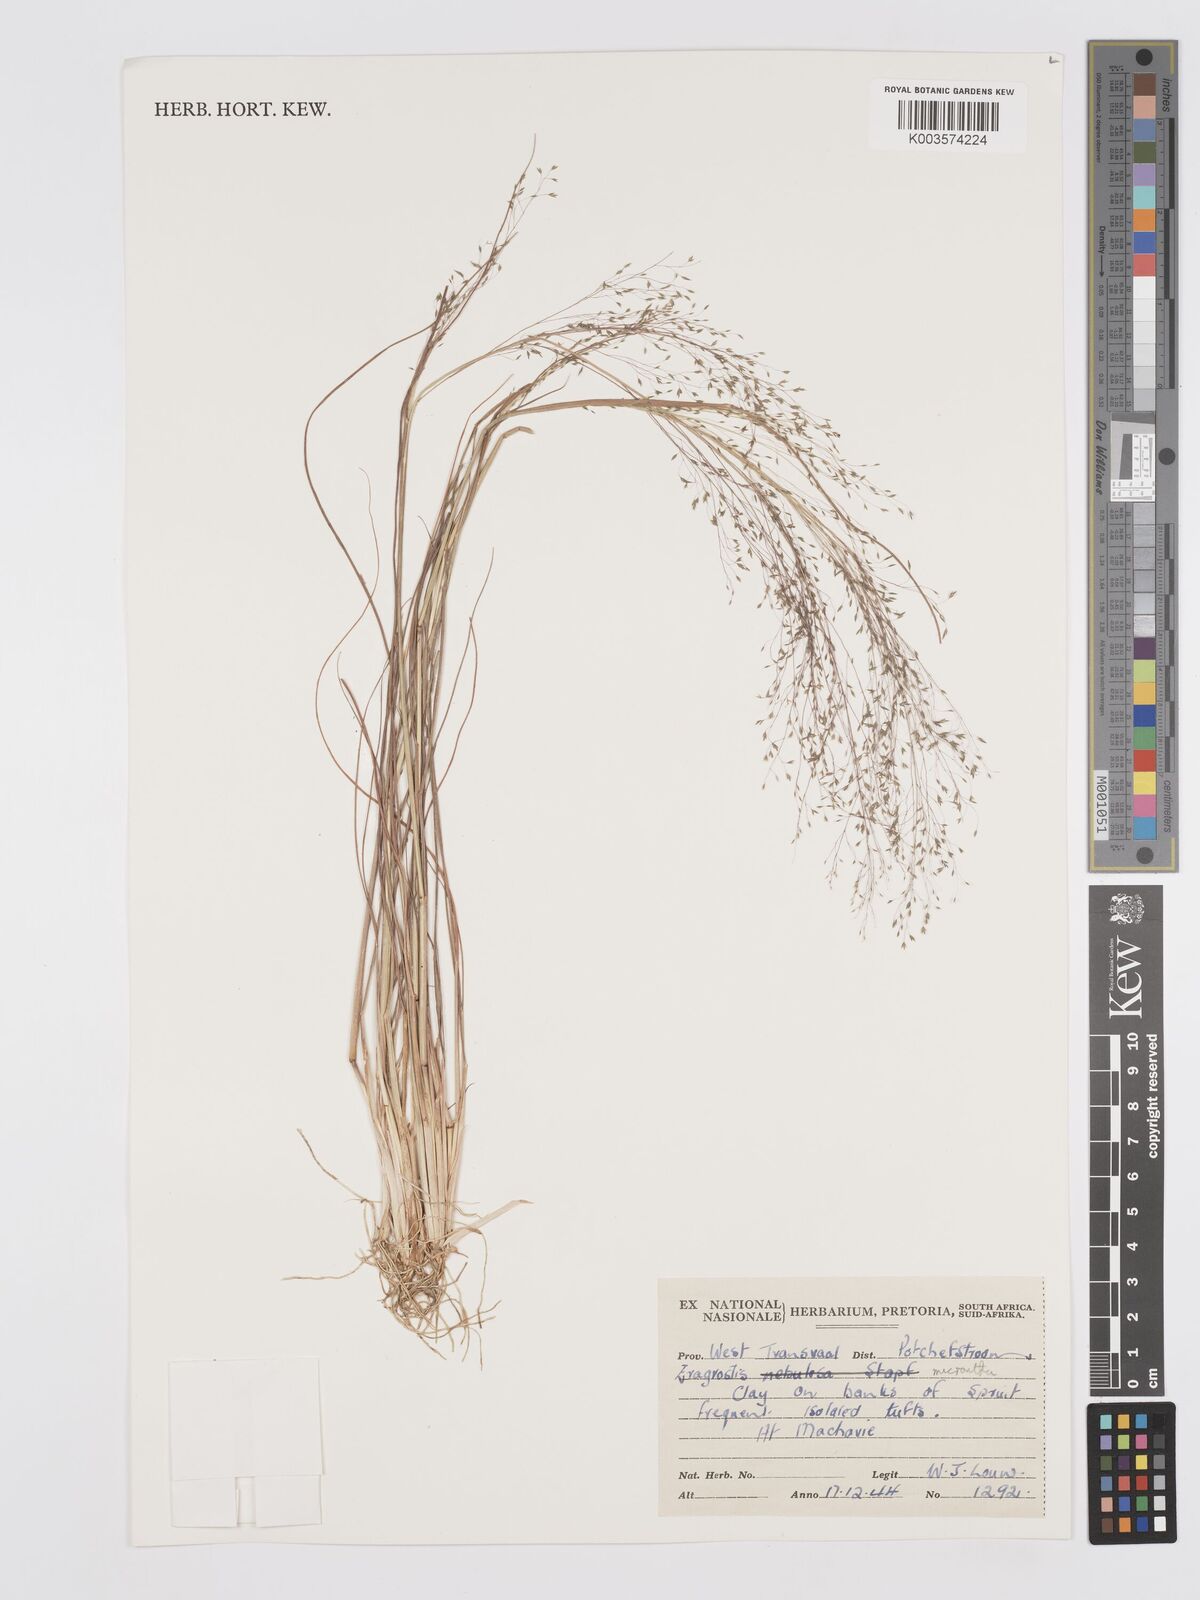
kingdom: Plantae
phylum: Tracheophyta
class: Liliopsida
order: Poales
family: Poaceae
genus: Eragrostis
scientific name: Eragrostis micrantha
